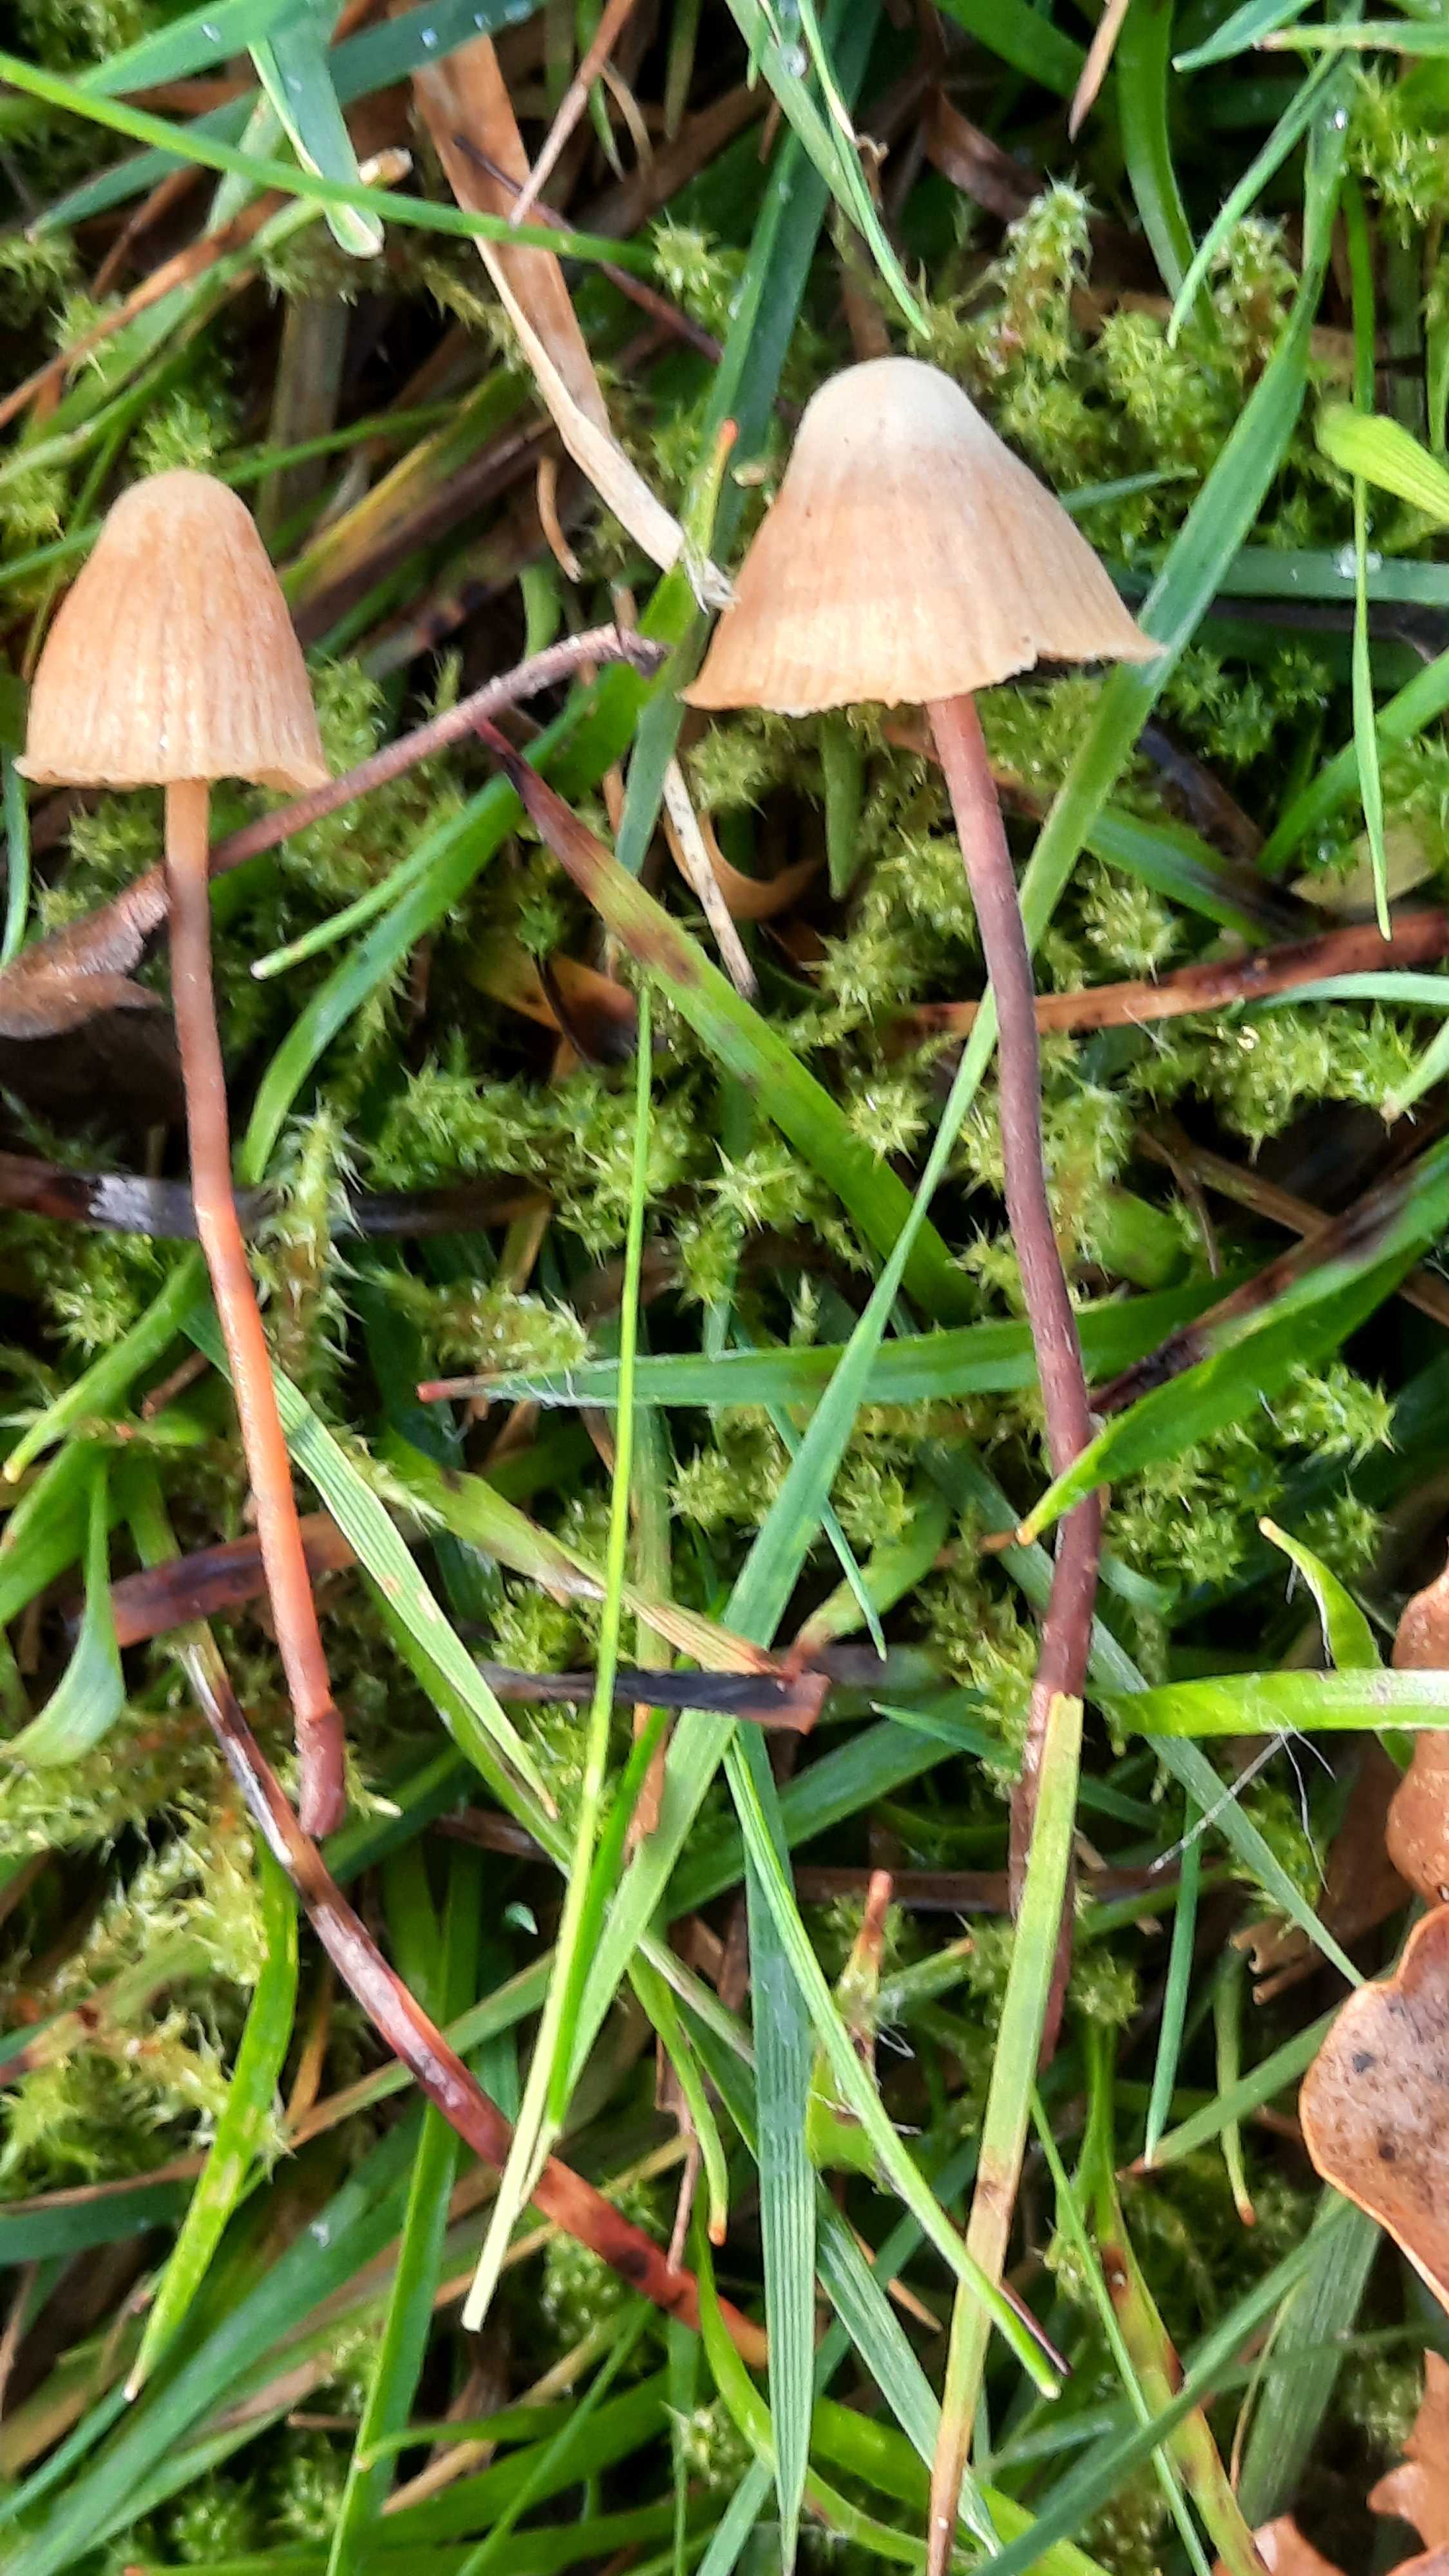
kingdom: Fungi
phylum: Basidiomycota
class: Agaricomycetes
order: Agaricales
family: Hymenogastraceae
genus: Galerina
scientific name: Galerina
